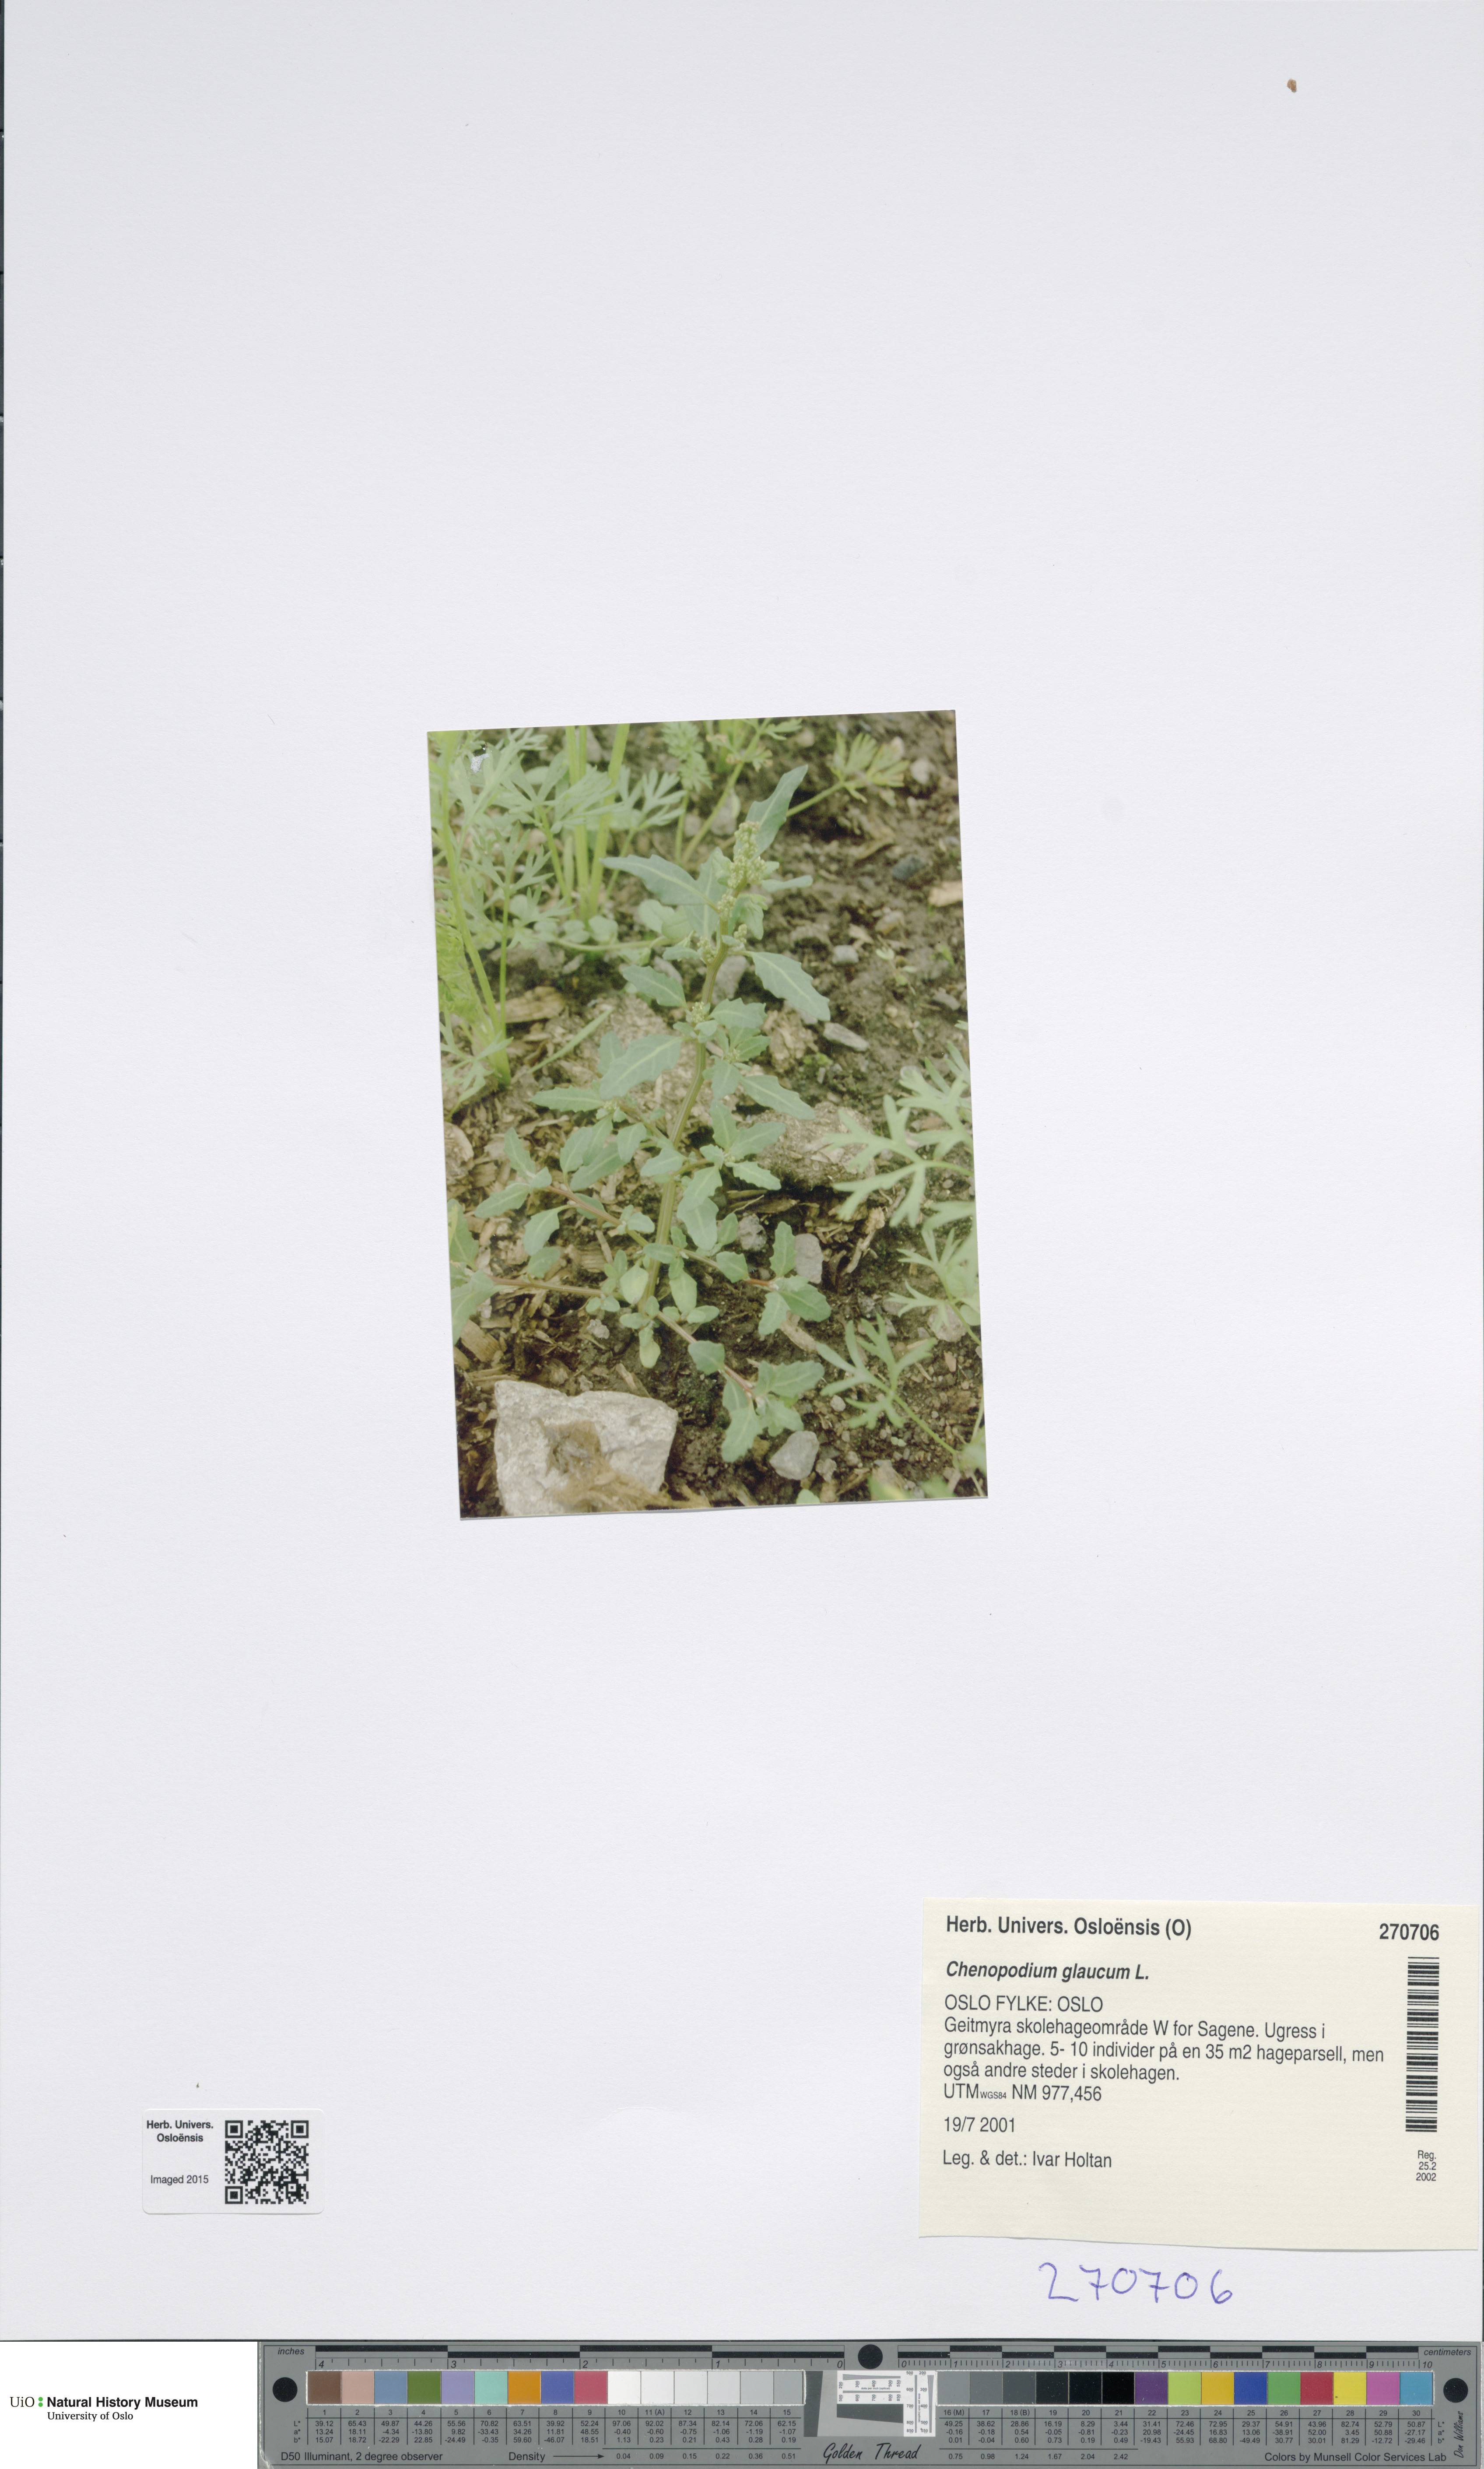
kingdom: Plantae
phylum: Tracheophyta
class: Magnoliopsida
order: Caryophyllales
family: Amaranthaceae
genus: Oxybasis
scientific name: Oxybasis glauca
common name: Glaucous goosefoot
